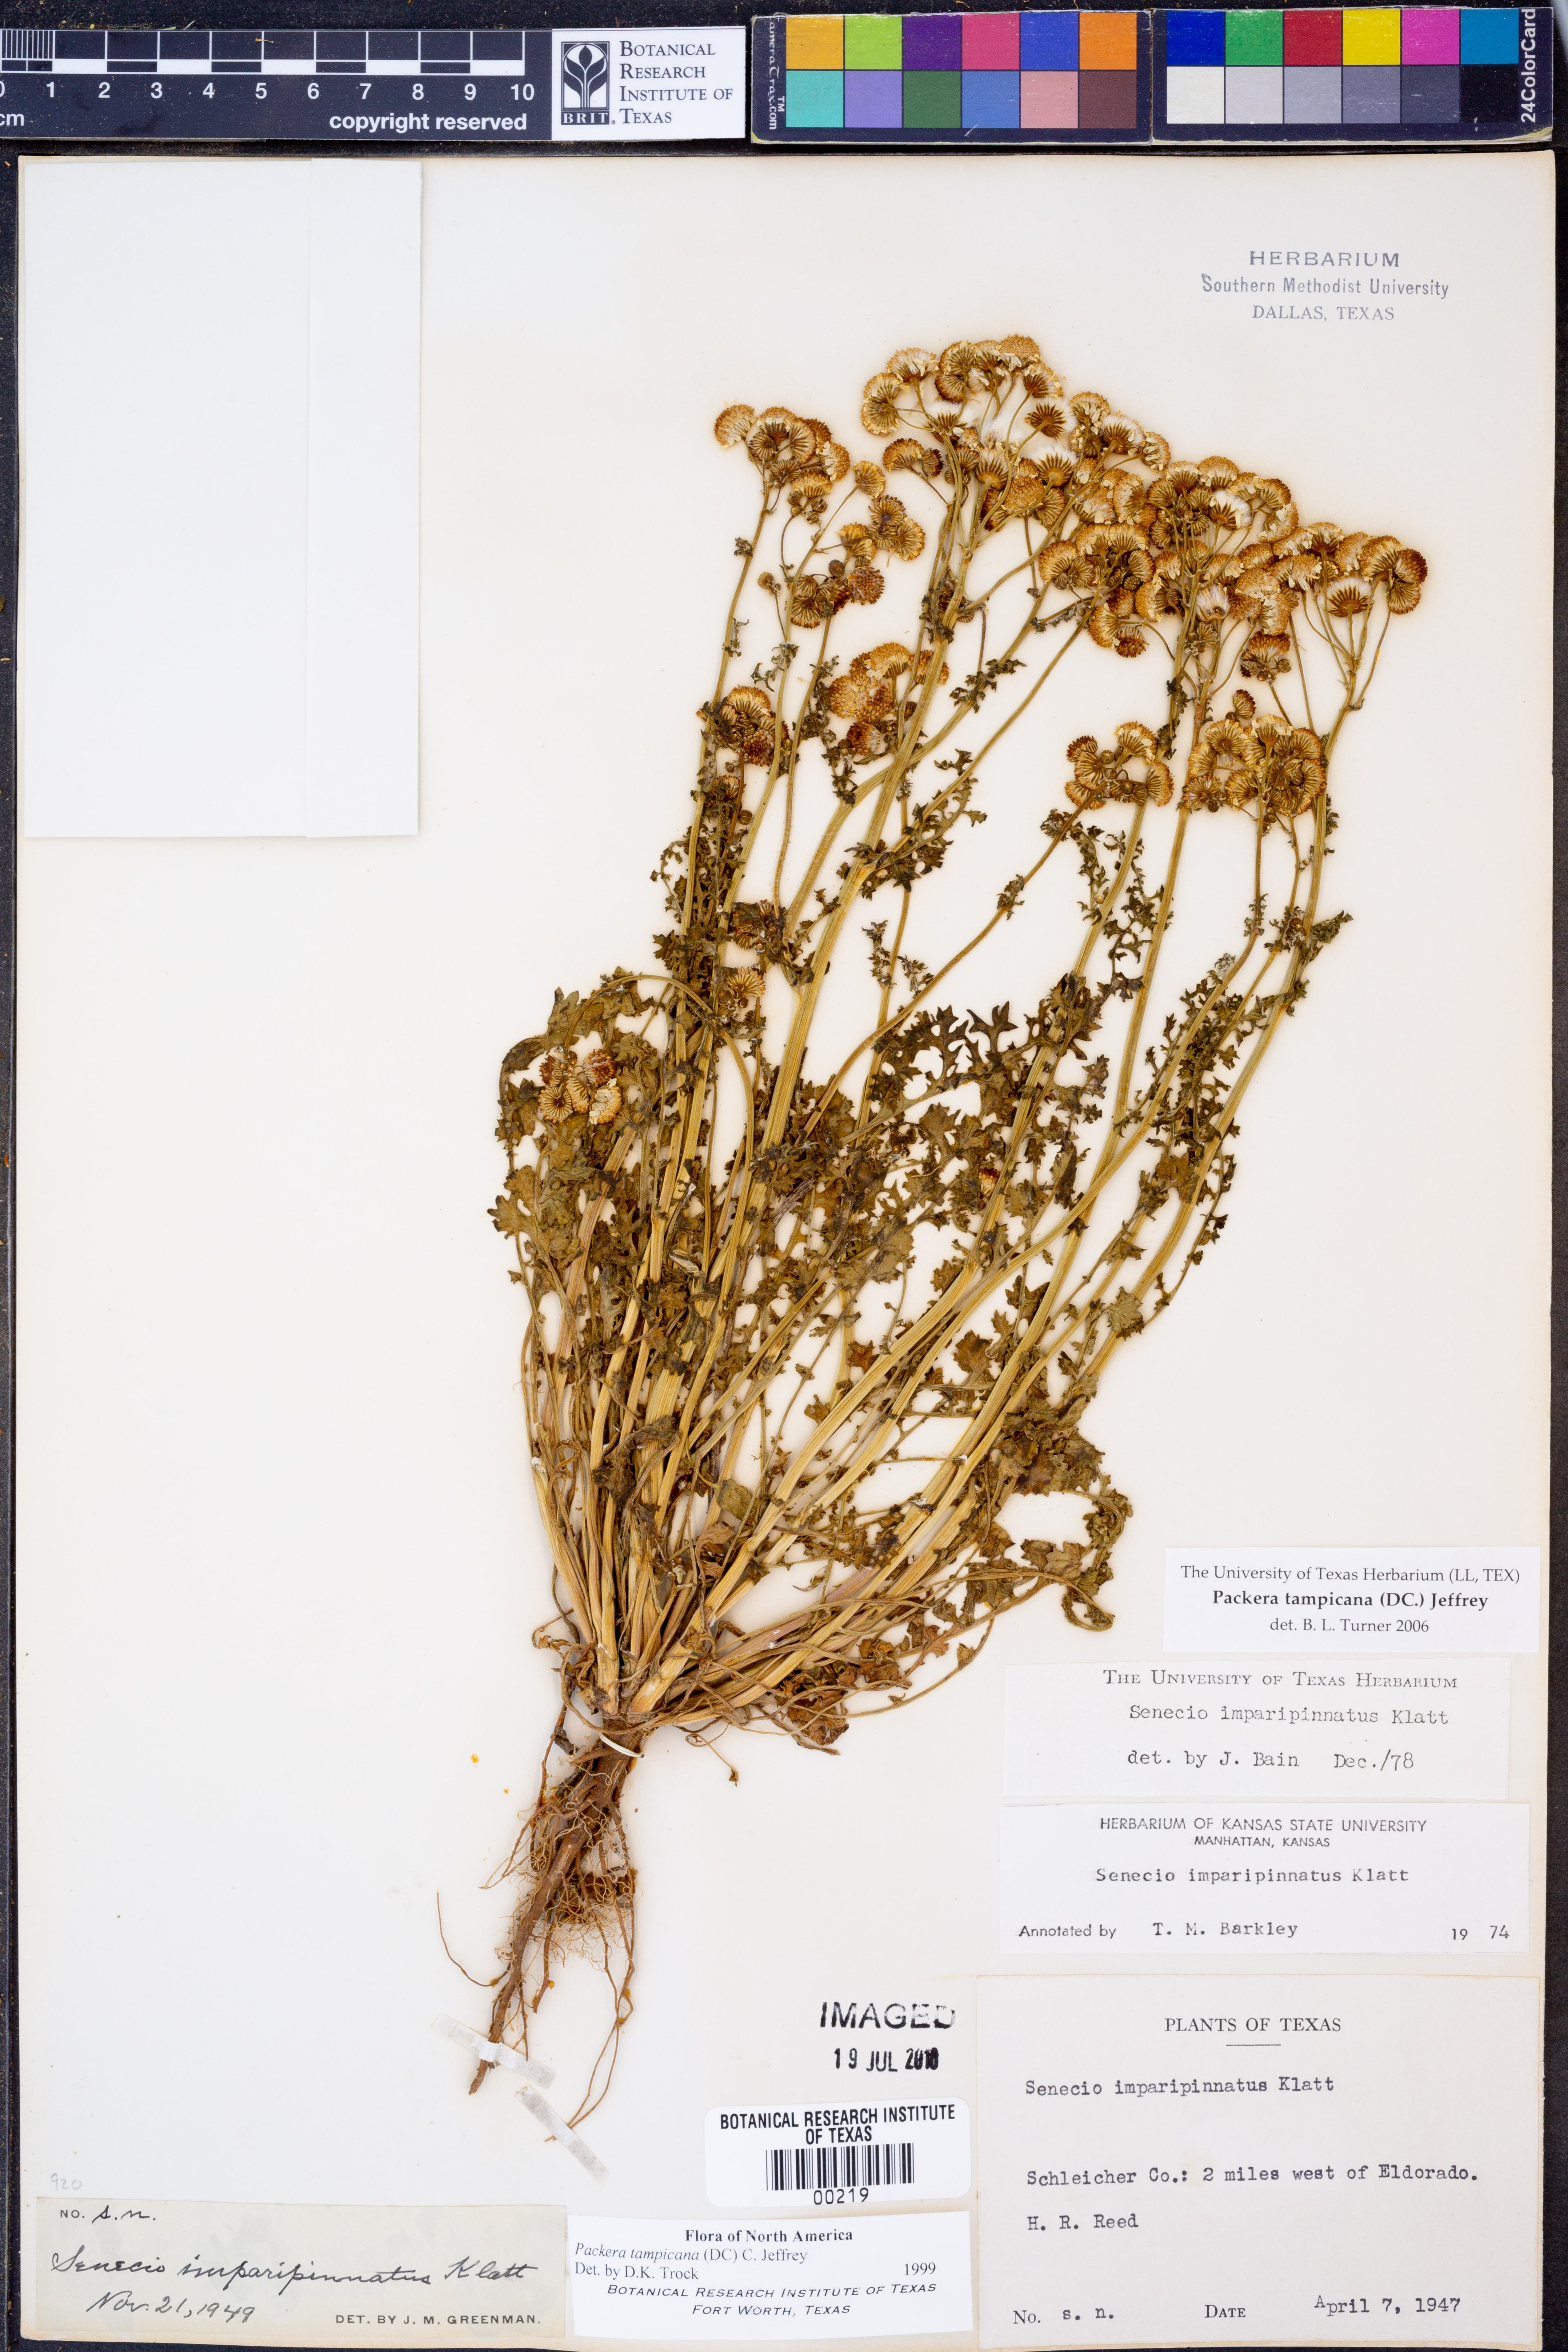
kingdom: Plantae
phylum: Tracheophyta
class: Magnoliopsida
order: Asterales
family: Asteraceae
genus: Packera
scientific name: Packera tampicana
